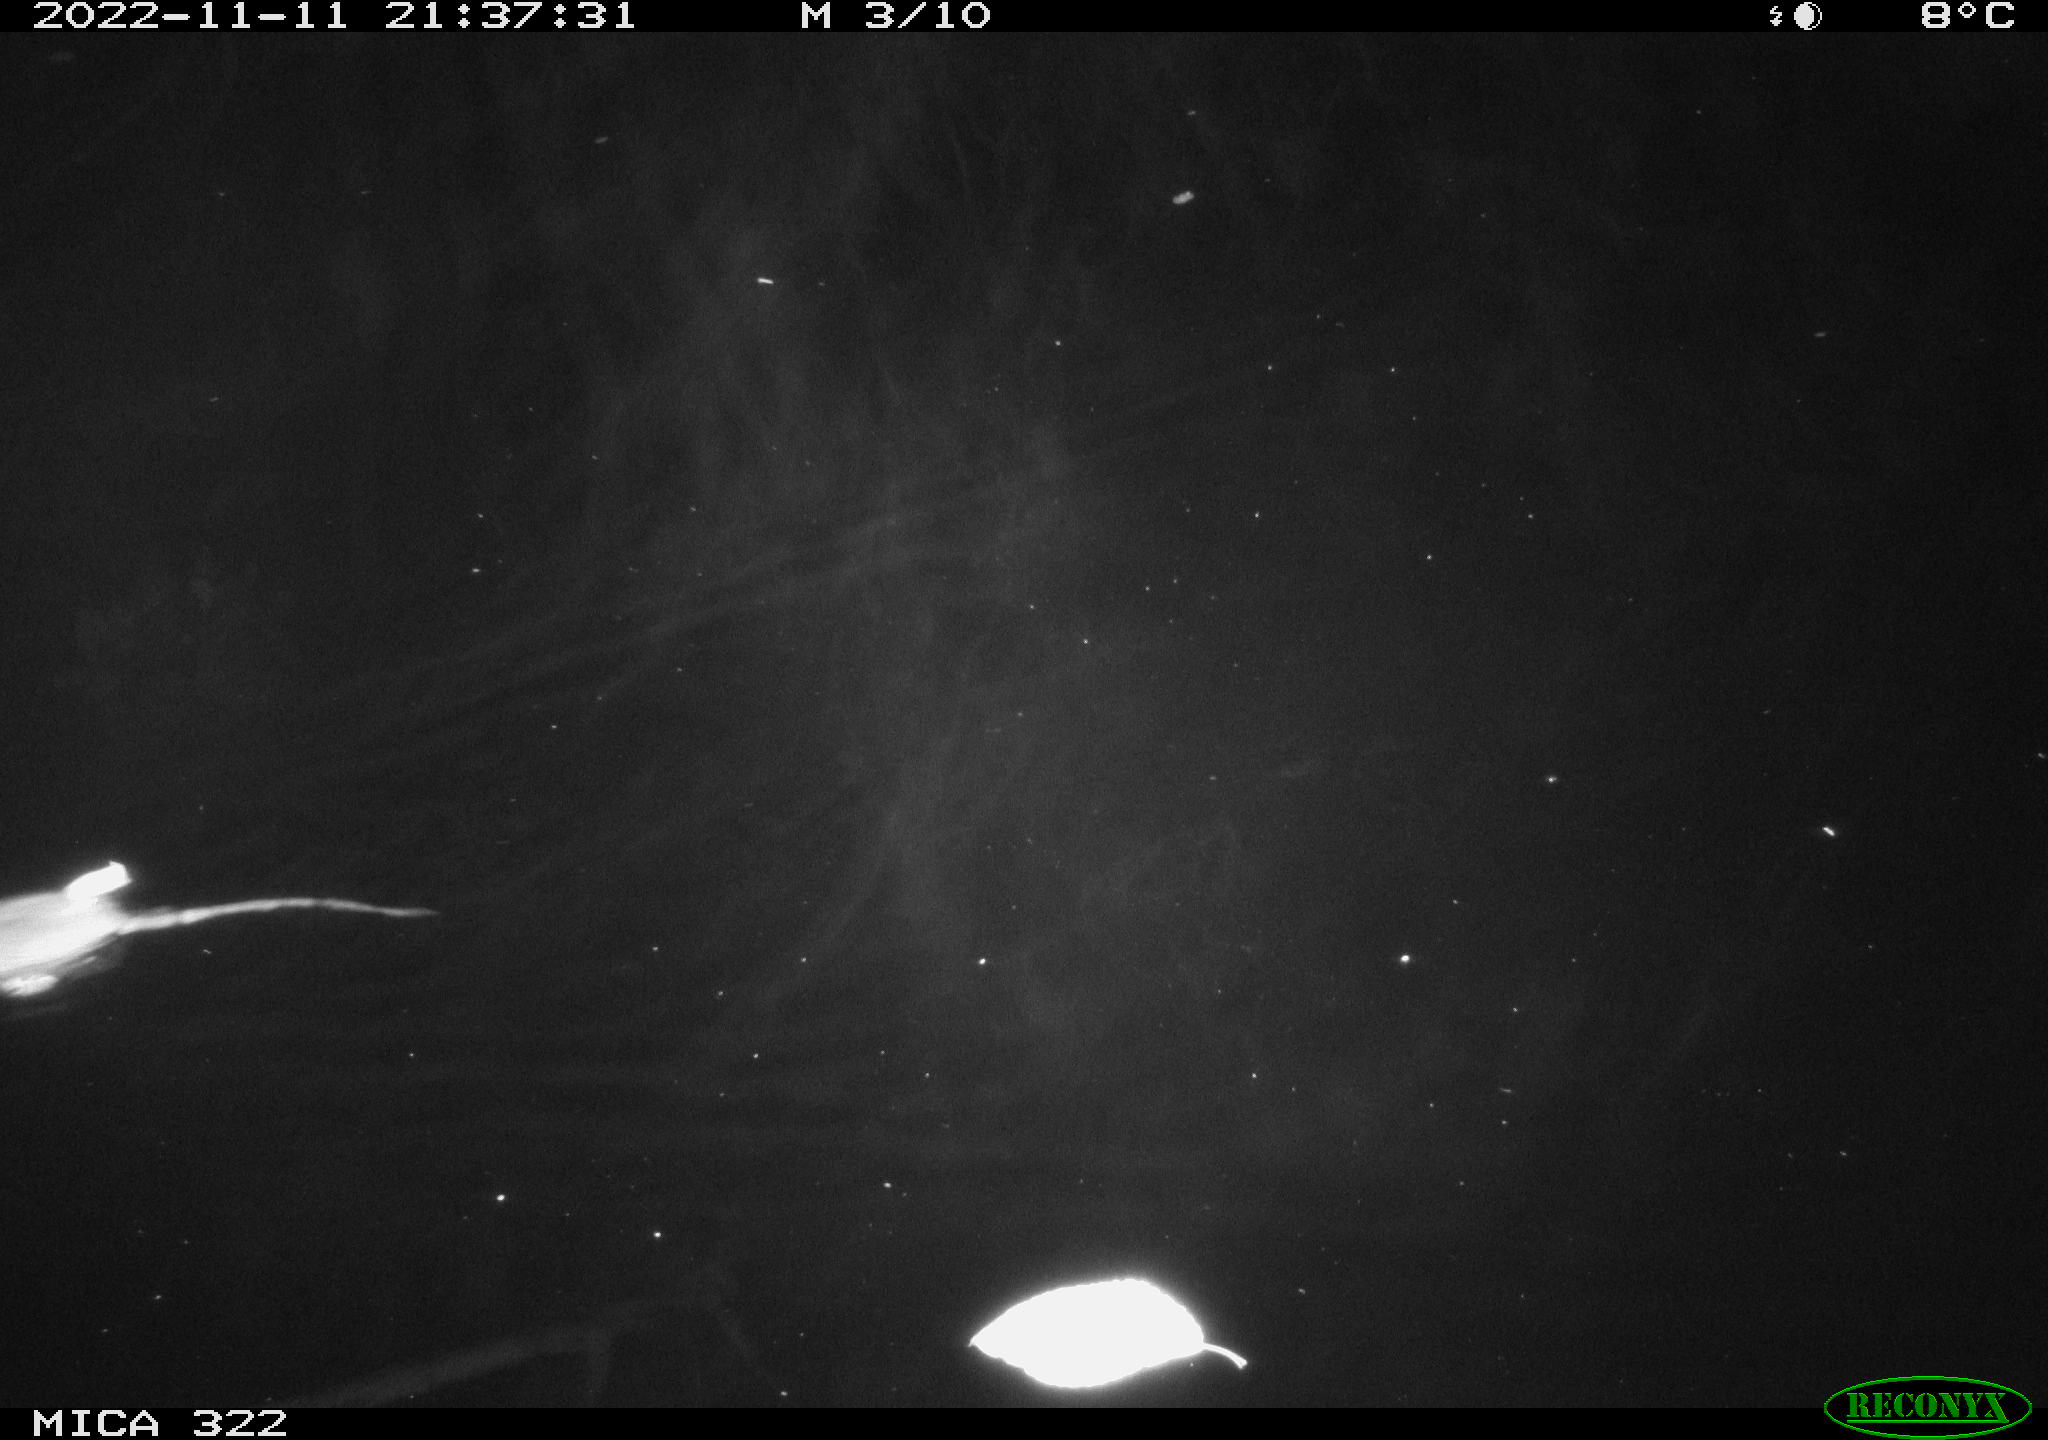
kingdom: Animalia
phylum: Chordata
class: Mammalia
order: Rodentia
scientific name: Rodentia
